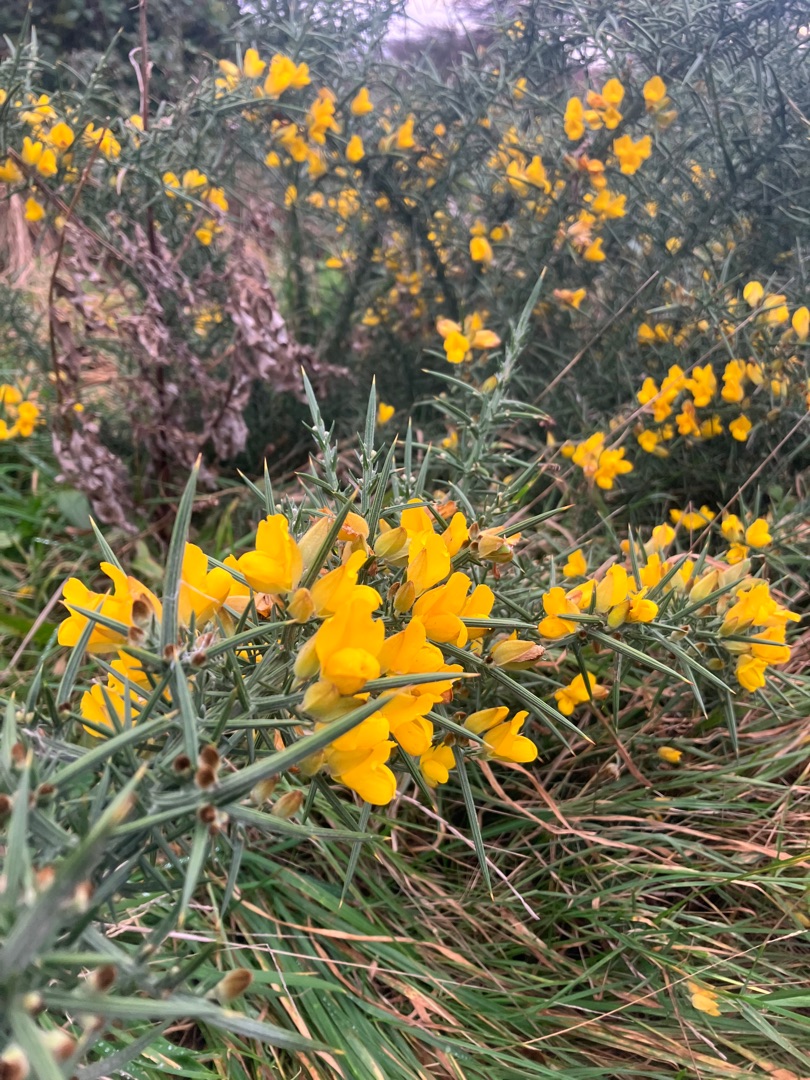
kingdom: Plantae
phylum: Tracheophyta
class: Magnoliopsida
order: Fabales
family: Fabaceae
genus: Ulex
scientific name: Ulex europaeus
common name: Tornblad
